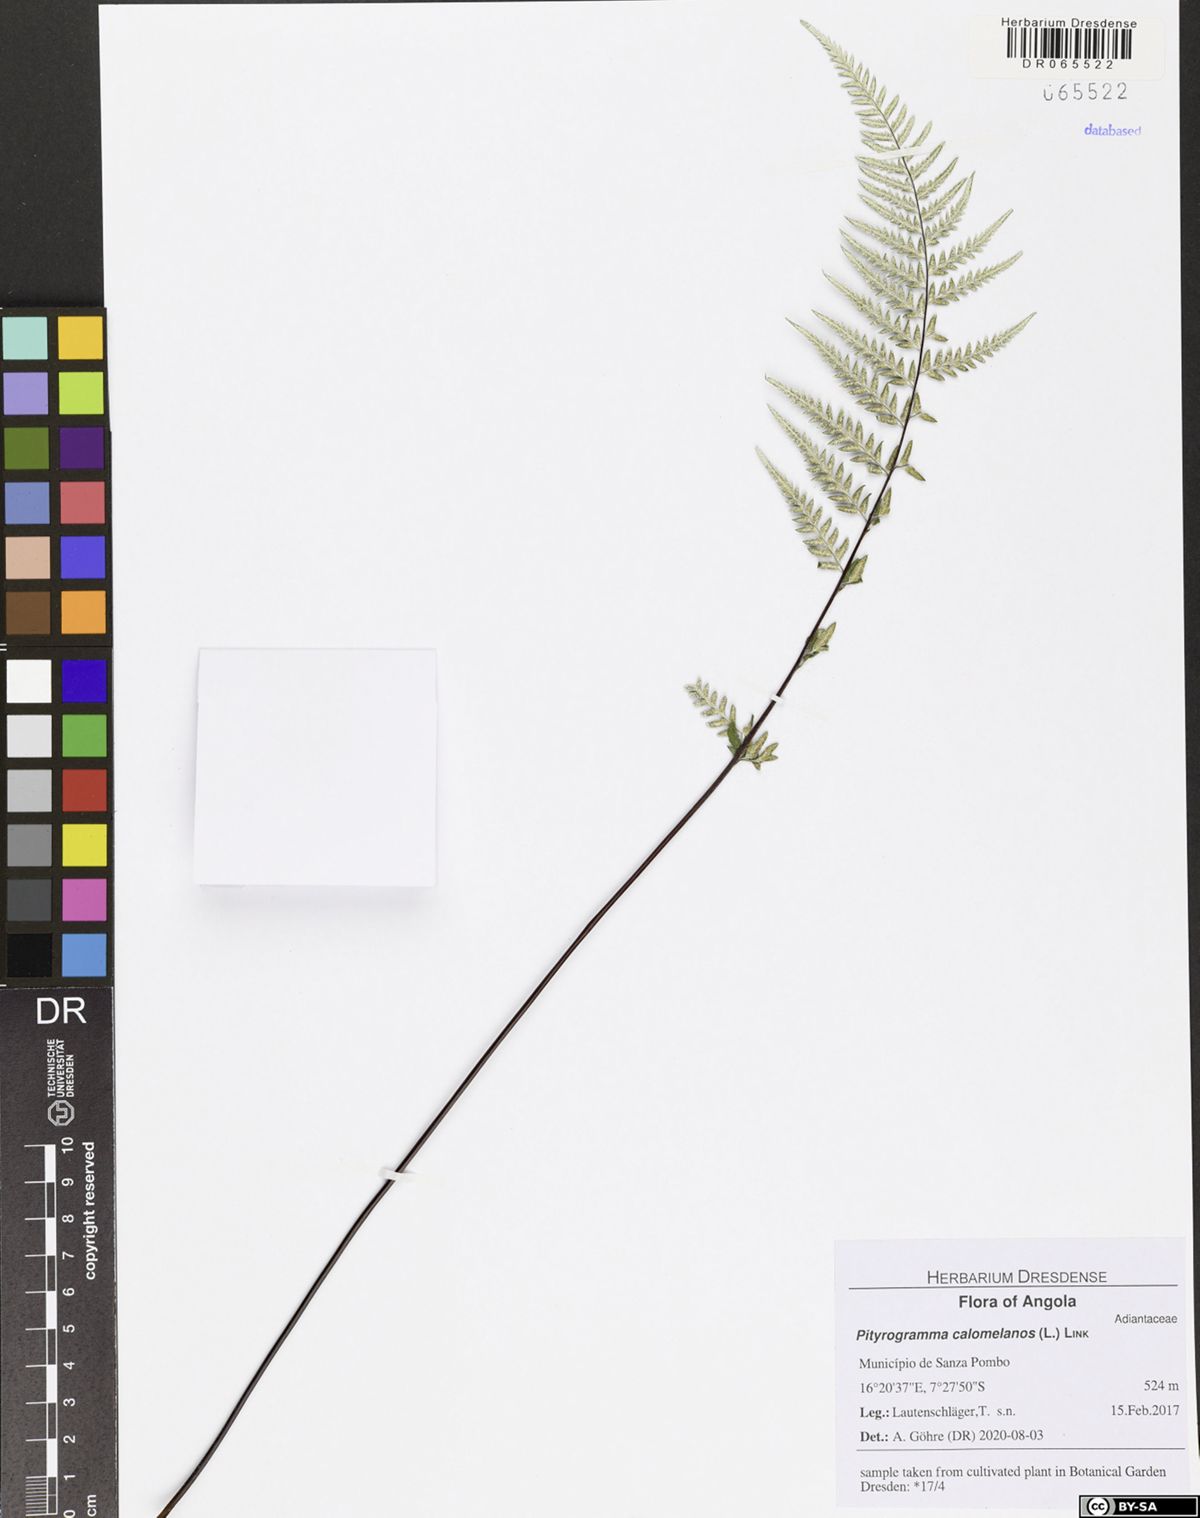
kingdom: Plantae
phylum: Tracheophyta
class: Polypodiopsida
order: Polypodiales
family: Pteridaceae
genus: Pityrogramma
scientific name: Pityrogramma calomelanos
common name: Dixie silverback fern
